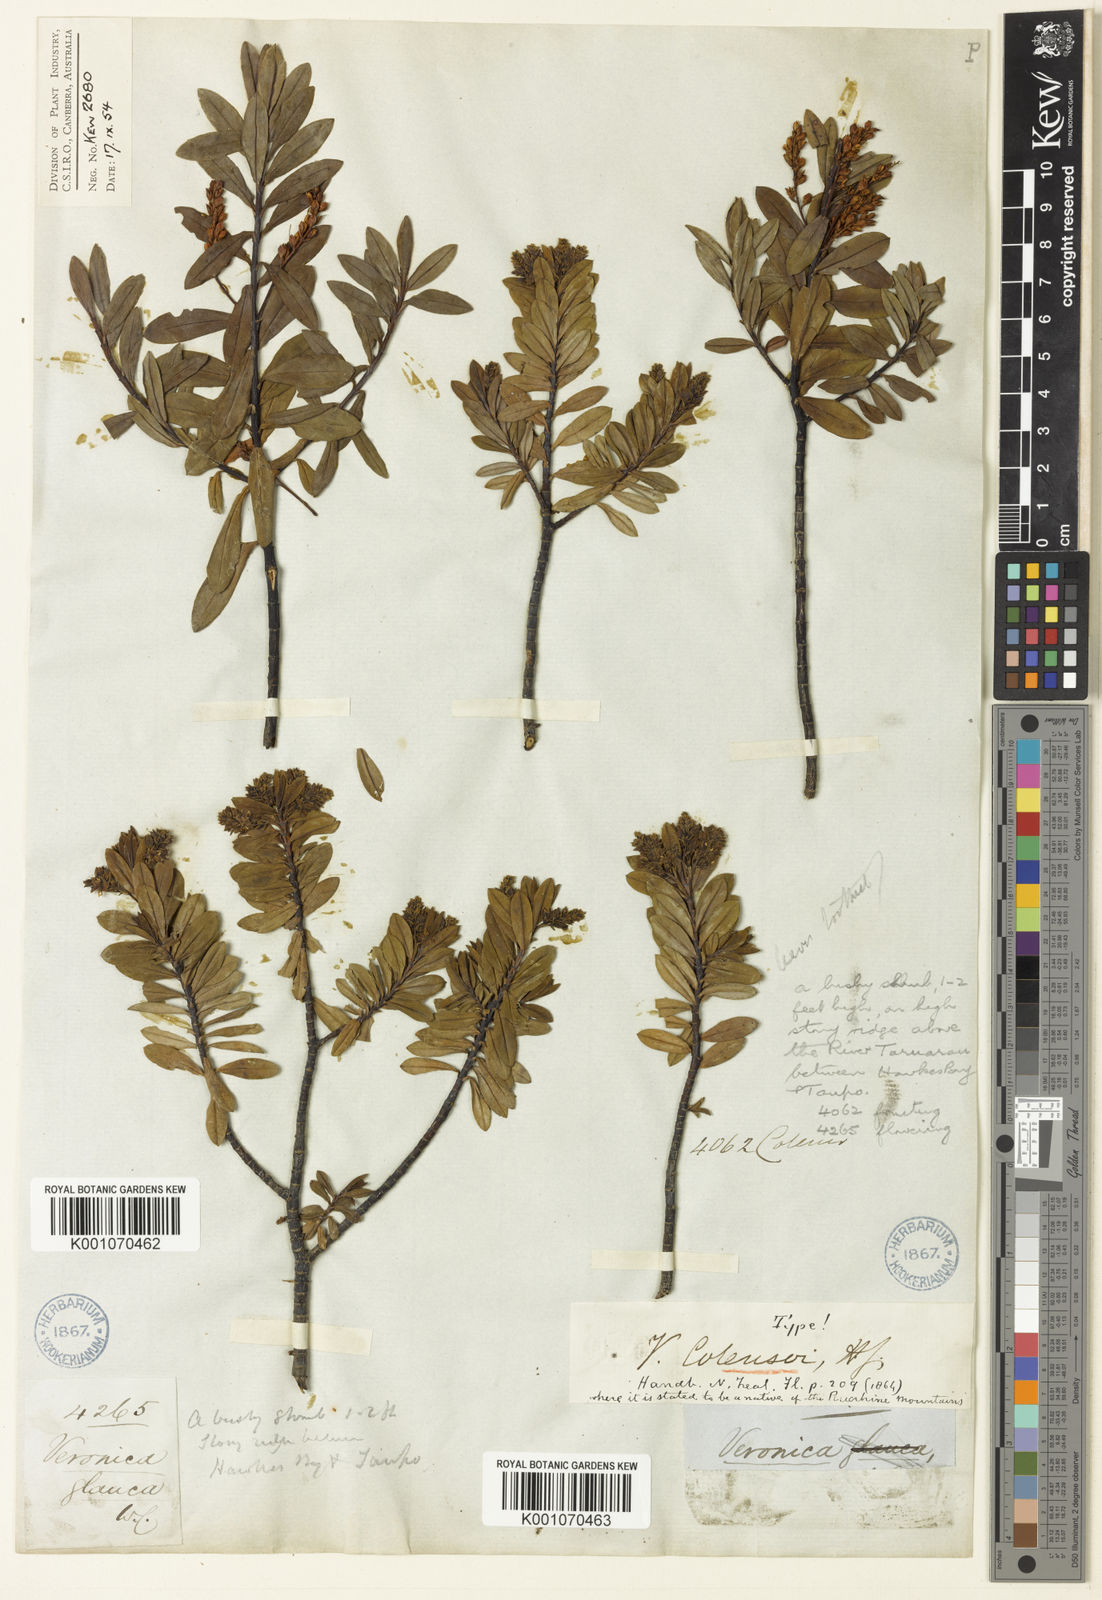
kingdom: Plantae
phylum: Tracheophyta
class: Magnoliopsida
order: Lamiales
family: Plantaginaceae
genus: Veronica
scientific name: Veronica
